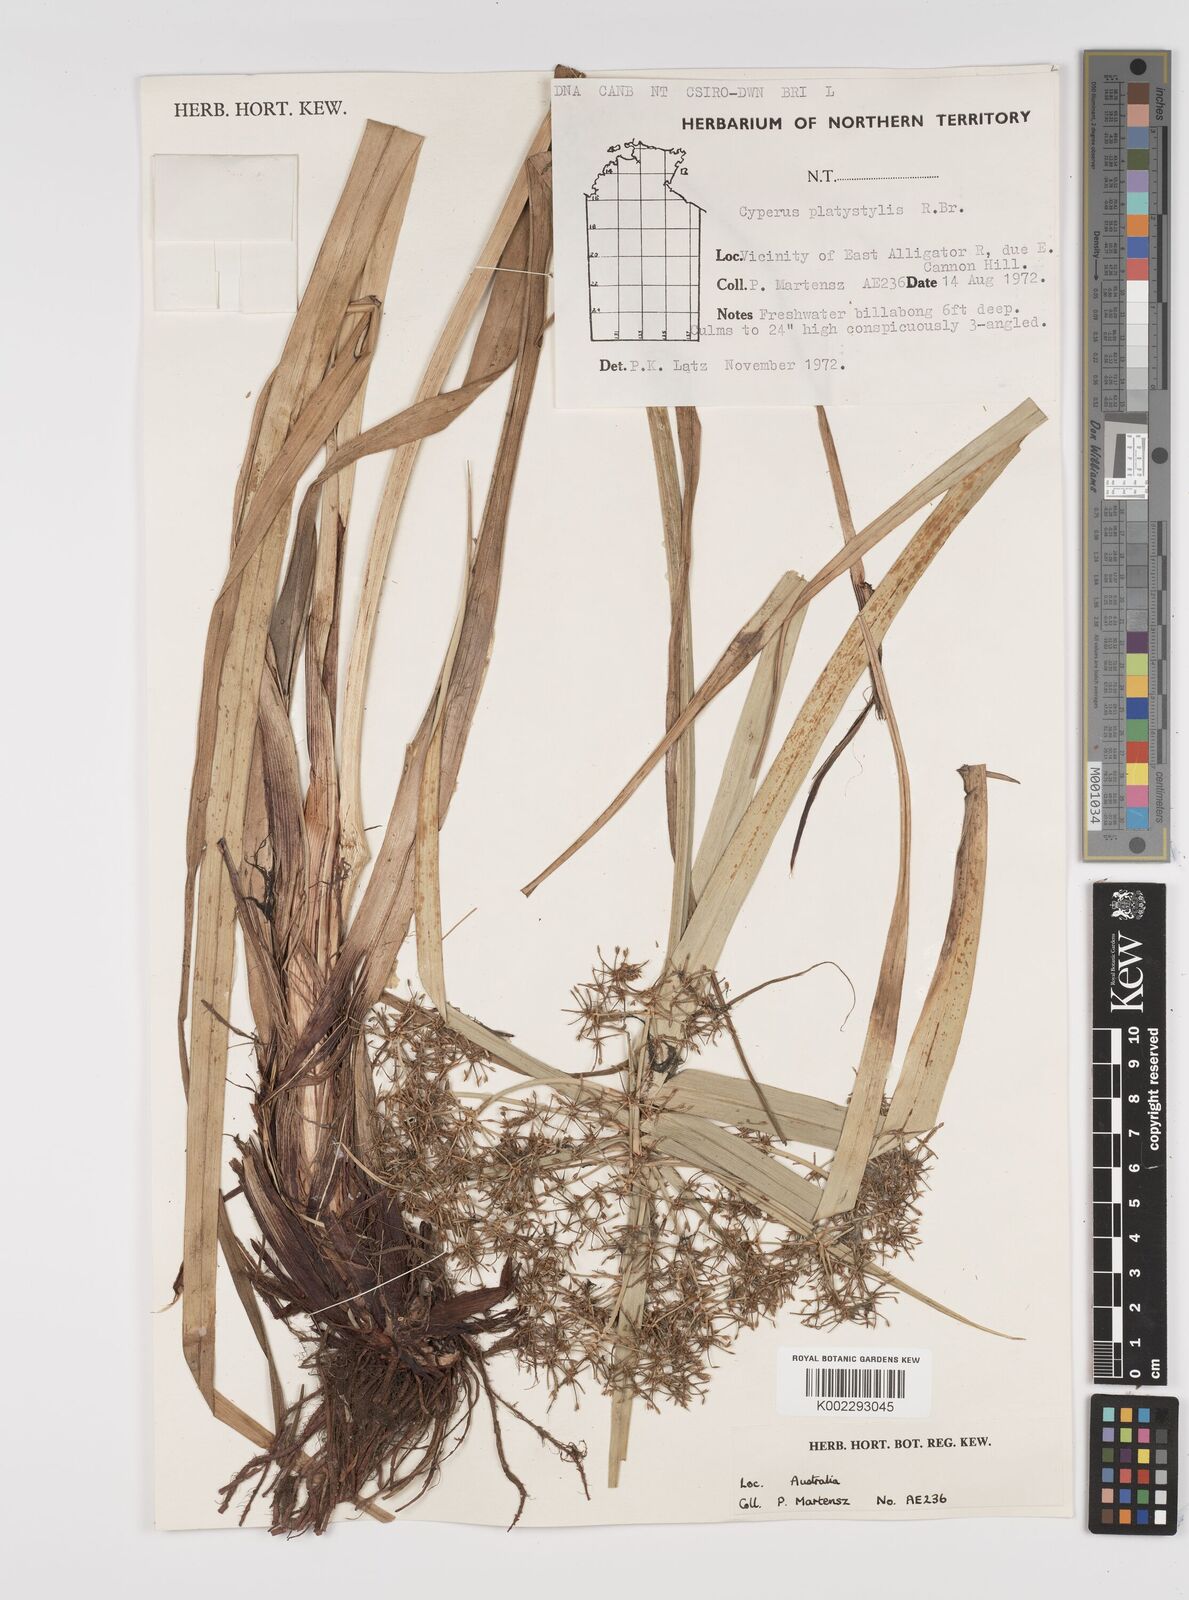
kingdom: Plantae
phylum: Tracheophyta
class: Liliopsida
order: Poales
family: Cyperaceae
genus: Cyperus
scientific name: Cyperus platystylis
